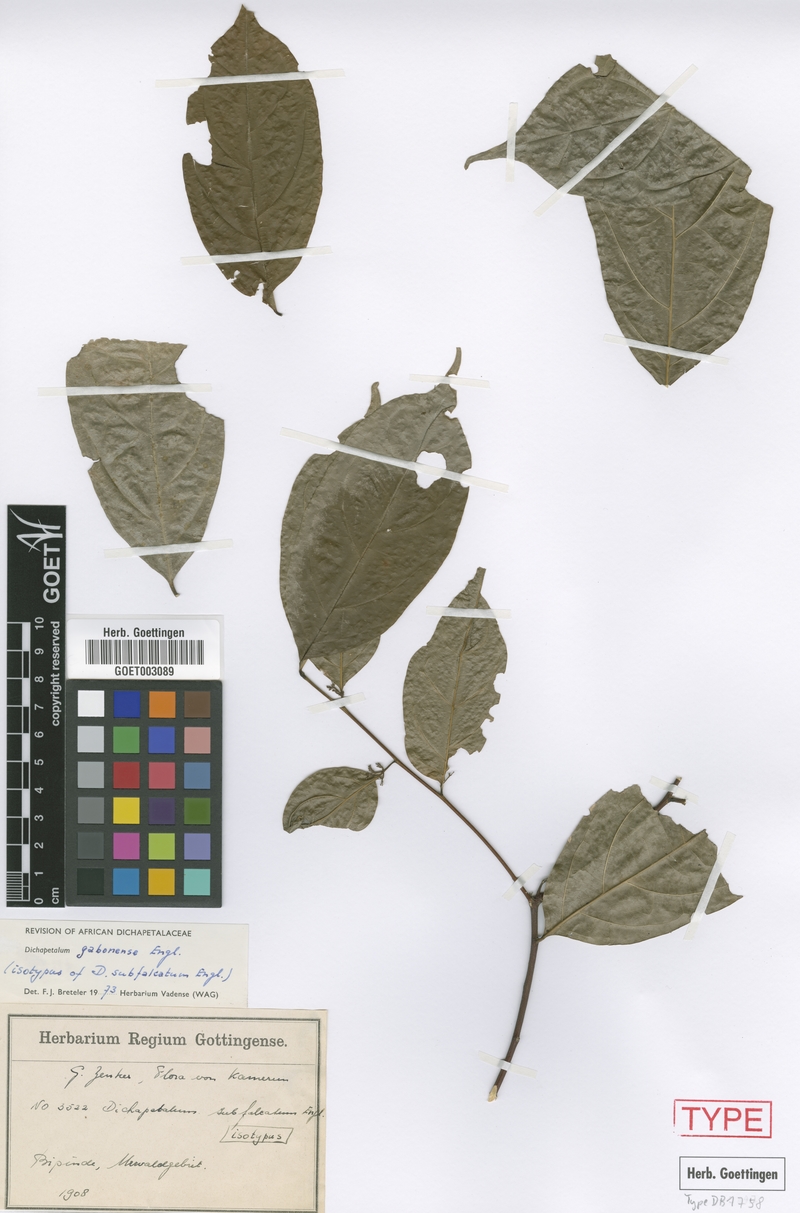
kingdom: Plantae
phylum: Tracheophyta
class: Magnoliopsida
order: Malpighiales
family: Dichapetalaceae
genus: Dichapetalum
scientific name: Dichapetalum gabonense
